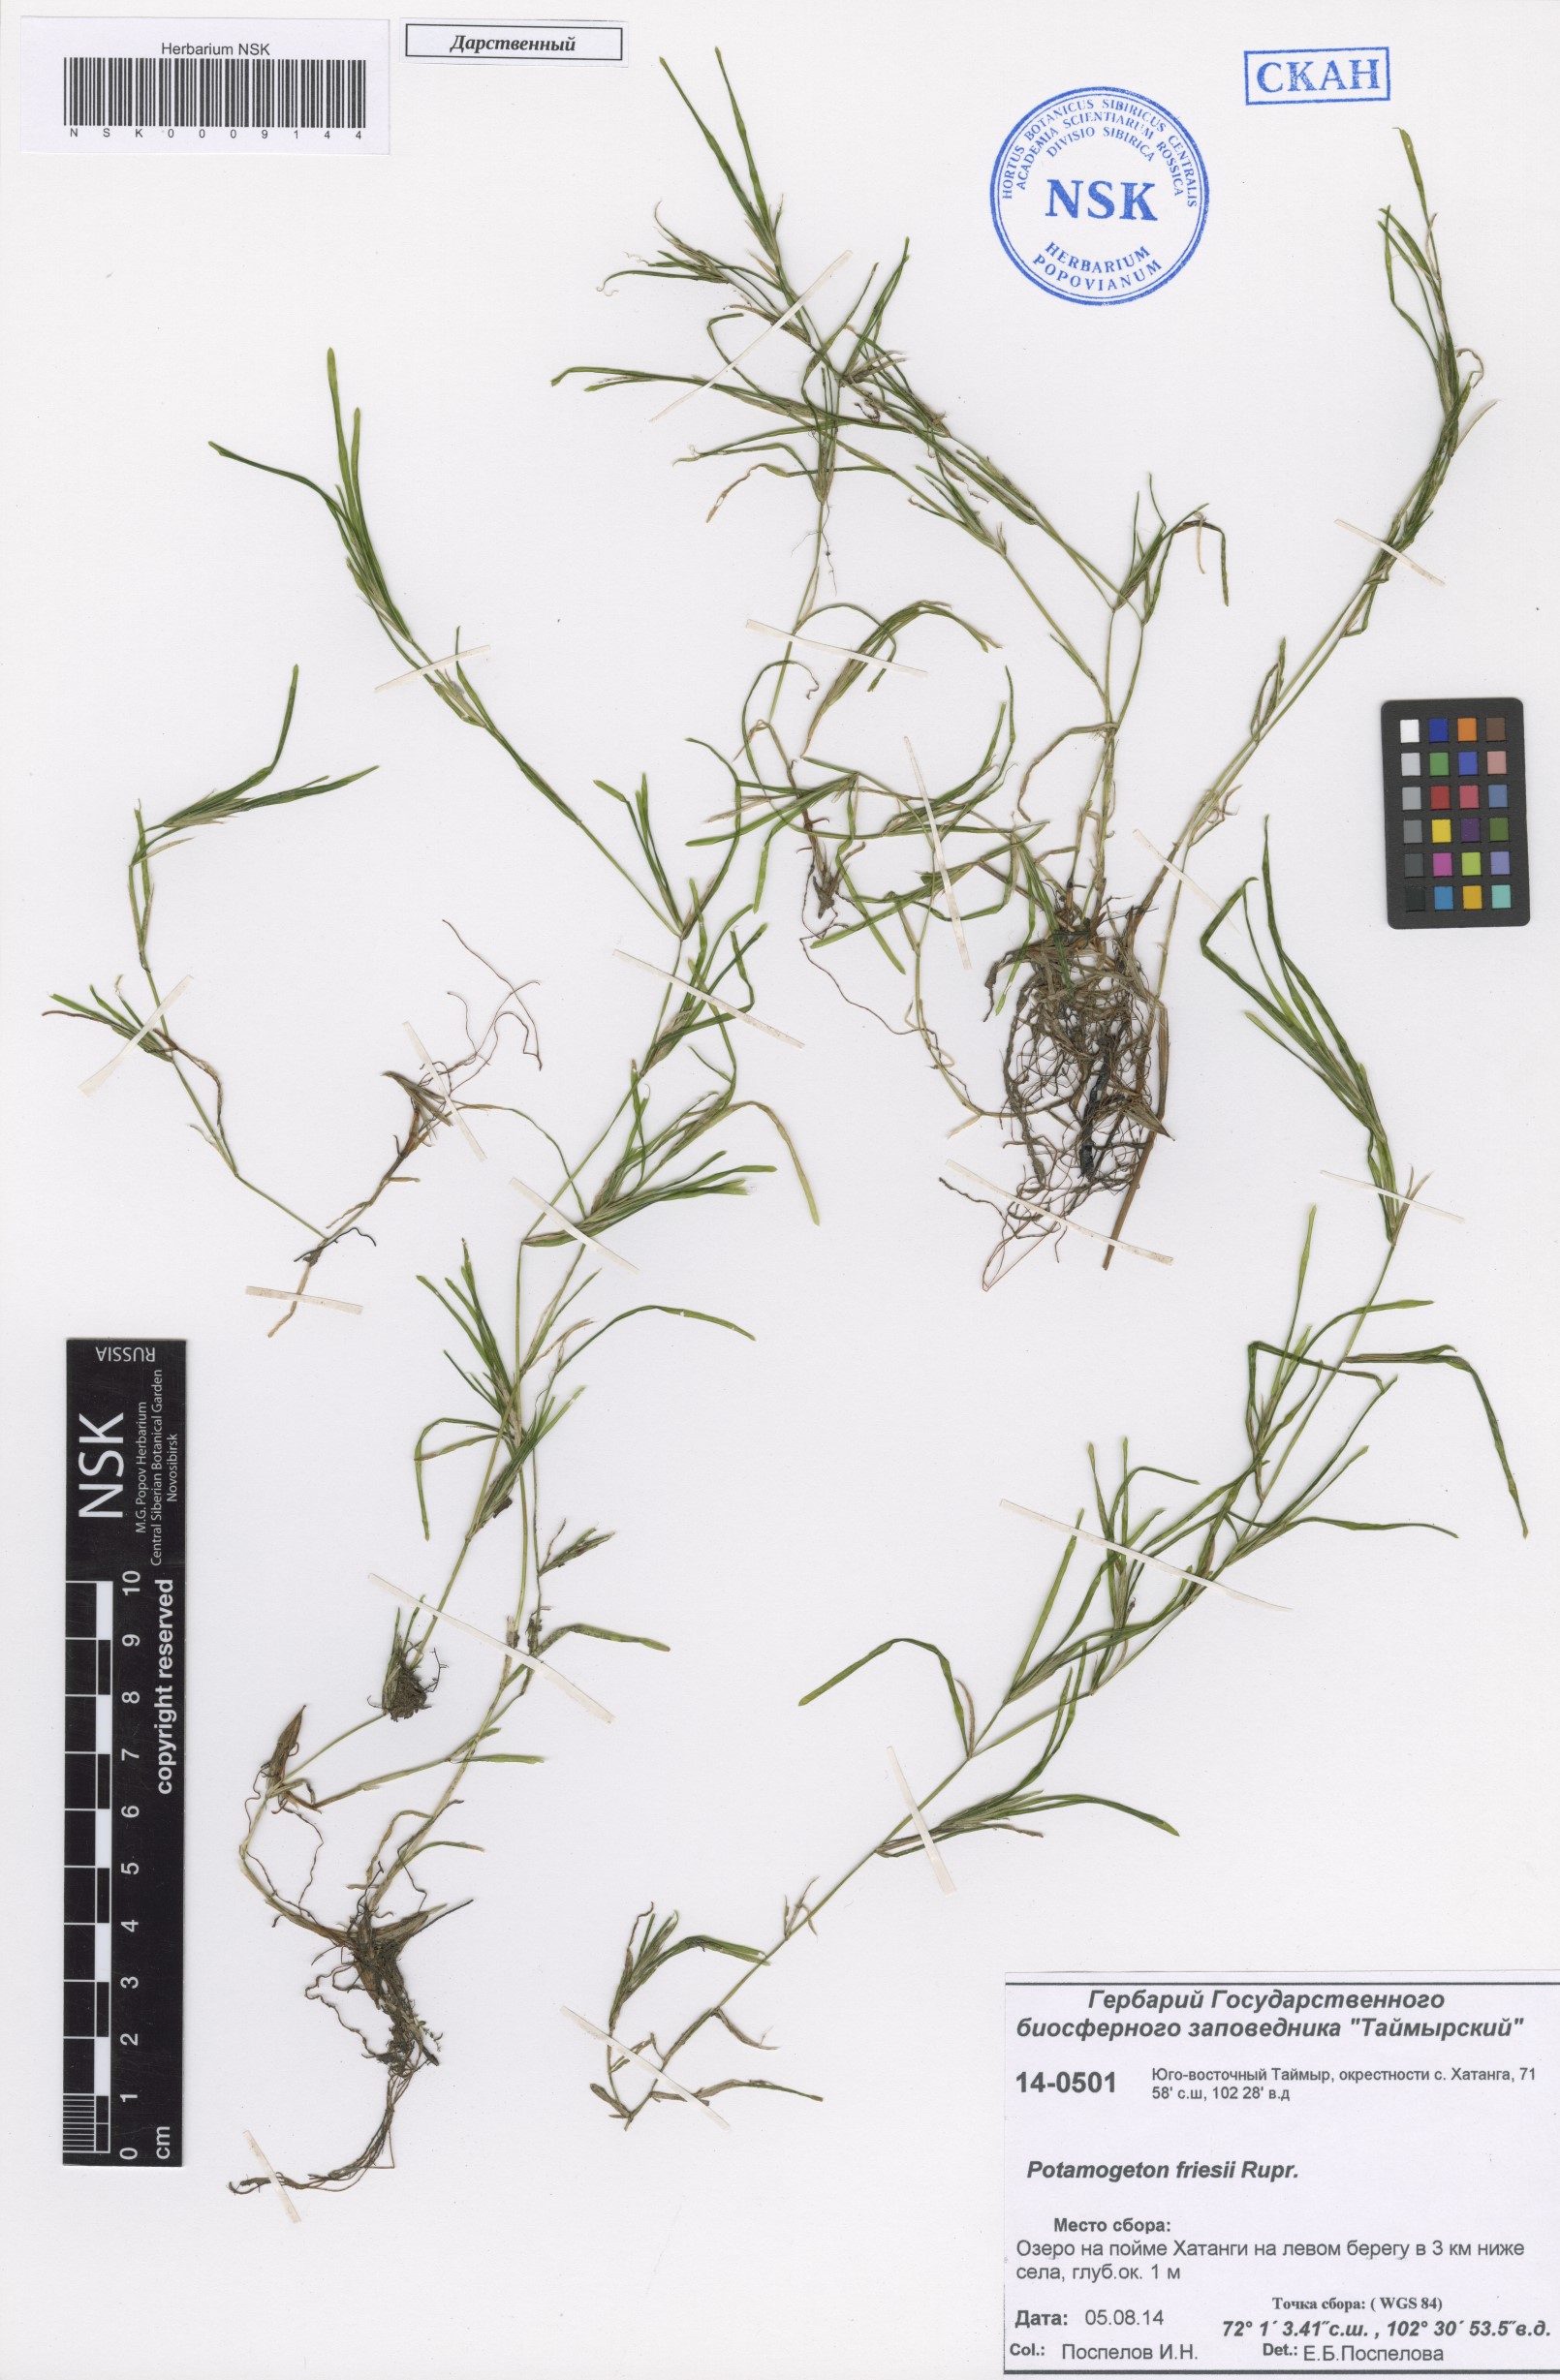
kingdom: Plantae
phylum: Tracheophyta
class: Liliopsida
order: Alismatales
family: Potamogetonaceae
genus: Potamogeton
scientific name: Potamogeton friesii
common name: Flat-stalked pondweed
